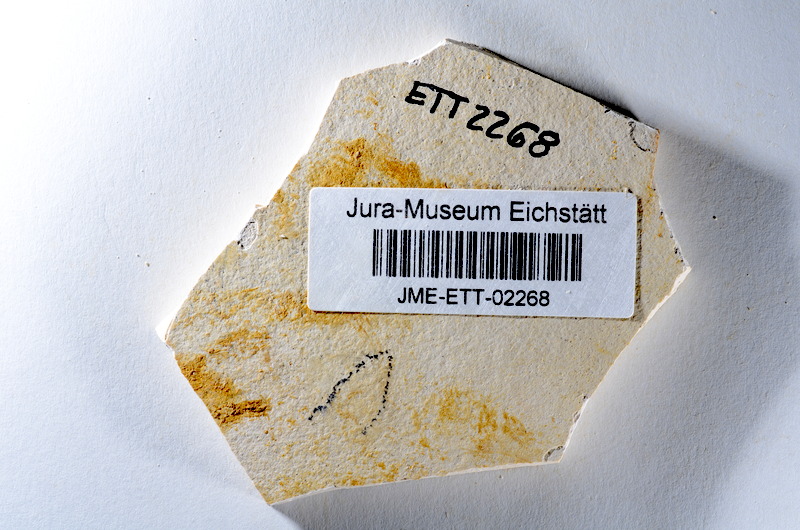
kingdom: Animalia
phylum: Chordata
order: Salmoniformes
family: Orthogonikleithridae
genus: Orthogonikleithrus
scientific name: Orthogonikleithrus hoelli
